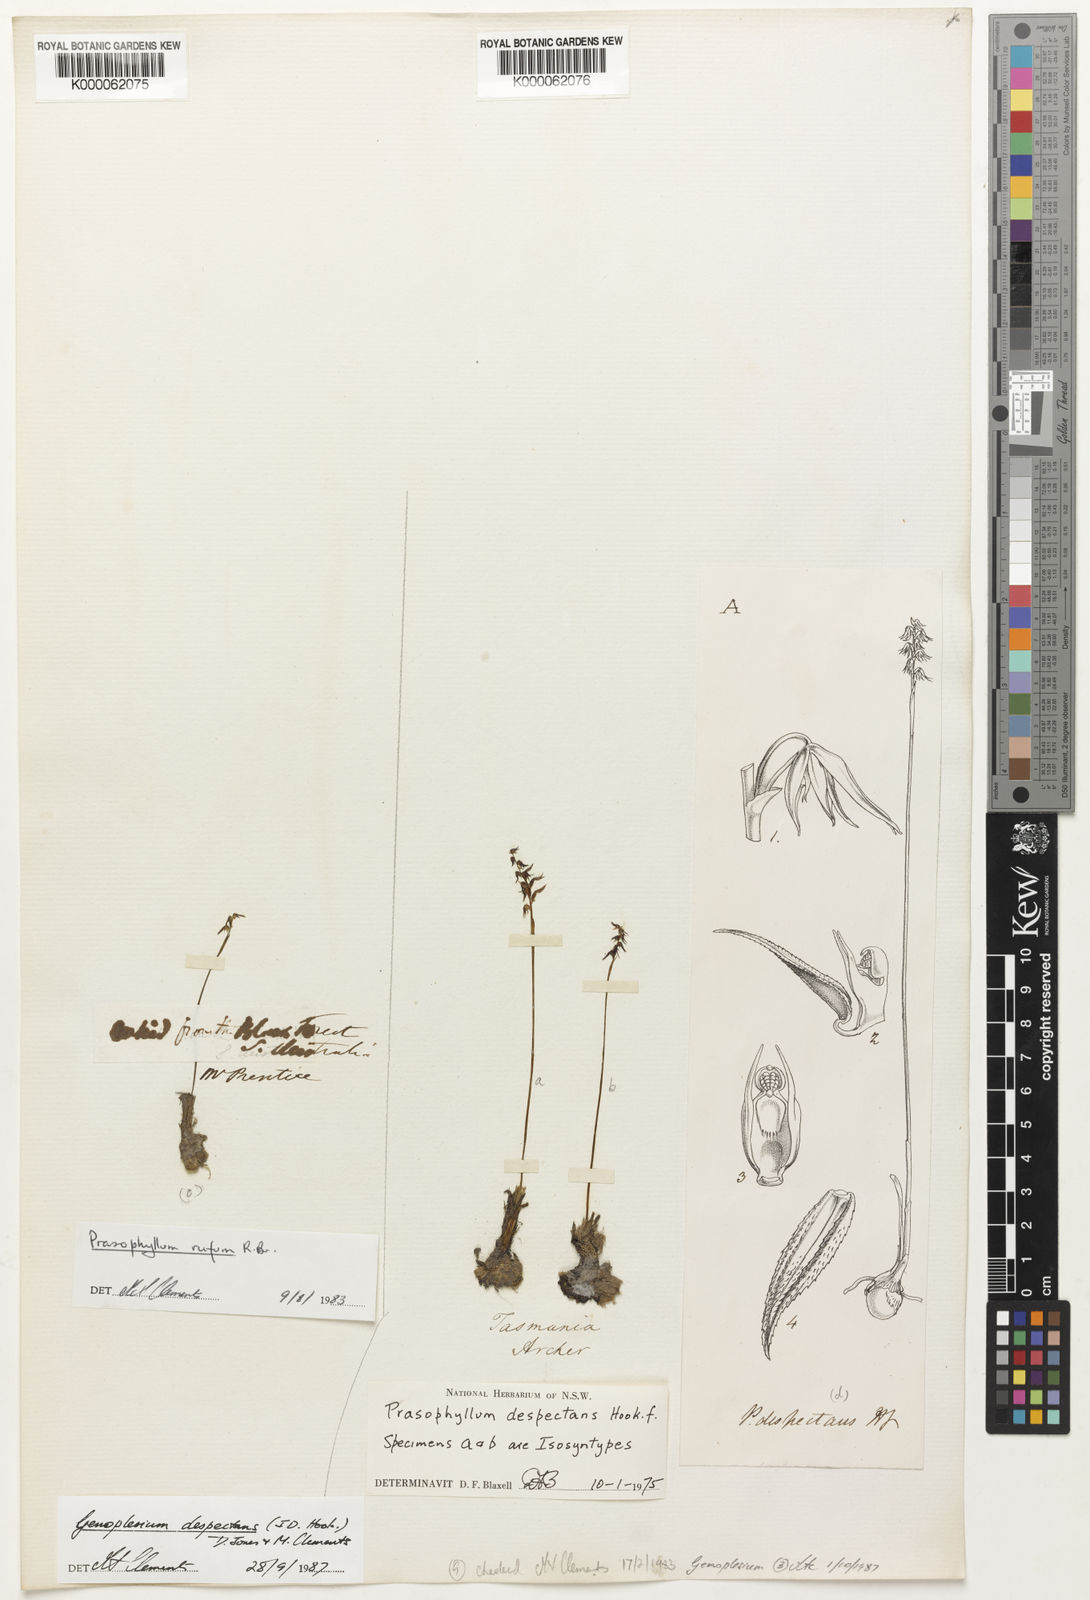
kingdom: Plantae
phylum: Tracheophyta
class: Liliopsida
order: Asparagales
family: Orchidaceae
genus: Genoplesium
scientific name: Genoplesium
